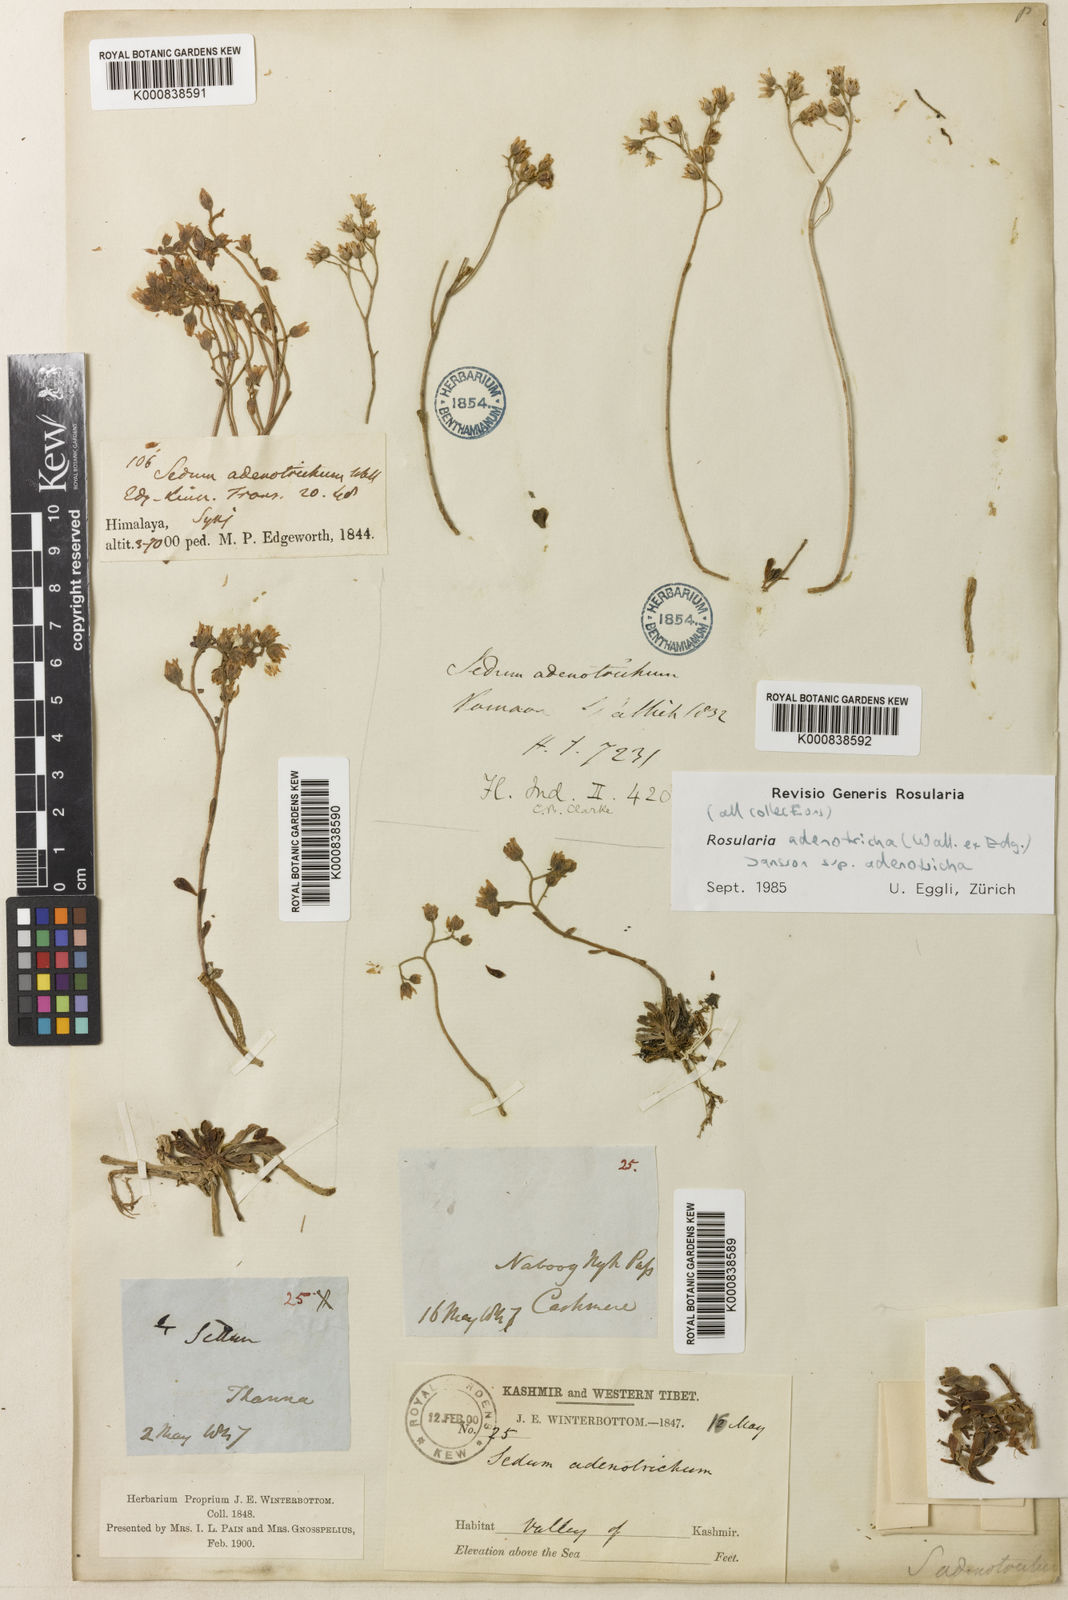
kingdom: Plantae
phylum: Tracheophyta
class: Magnoliopsida
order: Saxifragales
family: Crassulaceae
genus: Rosularia
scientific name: Rosularia adenotricha
